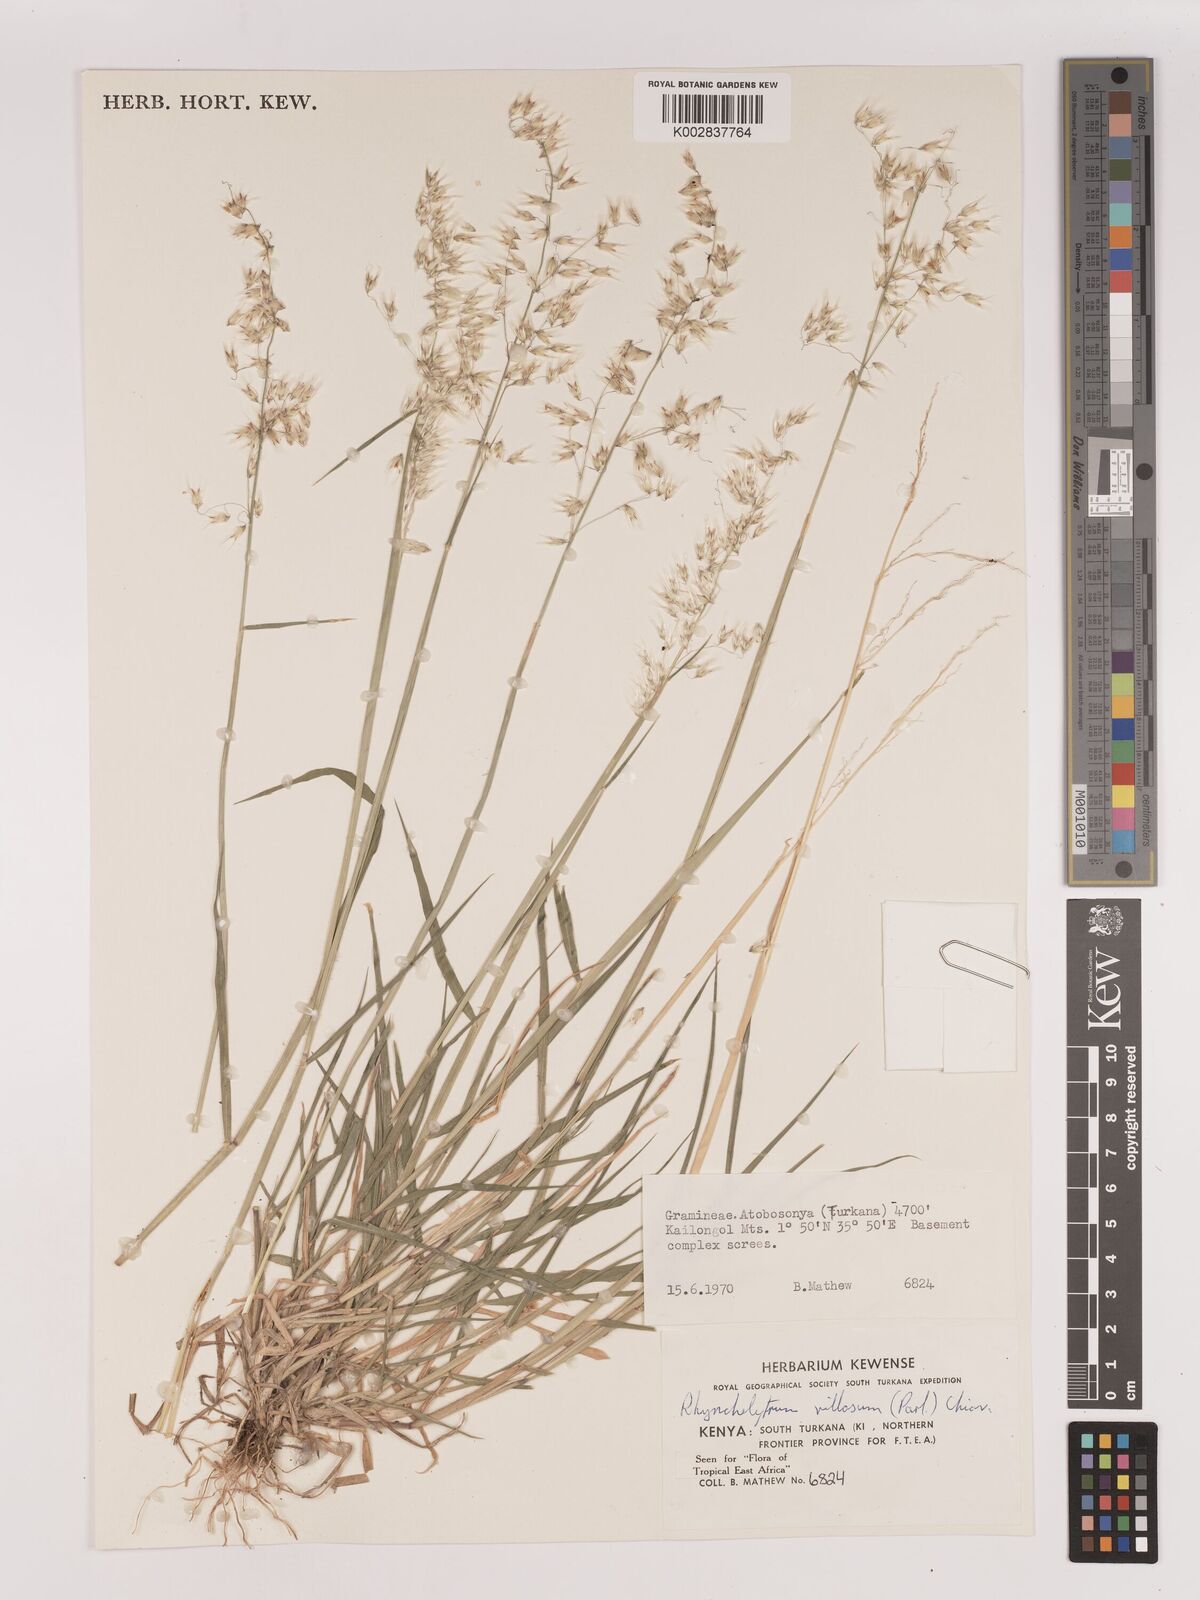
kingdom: Plantae
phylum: Tracheophyta
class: Liliopsida
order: Poales
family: Poaceae
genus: Melinis
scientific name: Melinis repens
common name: Rose natal grass
